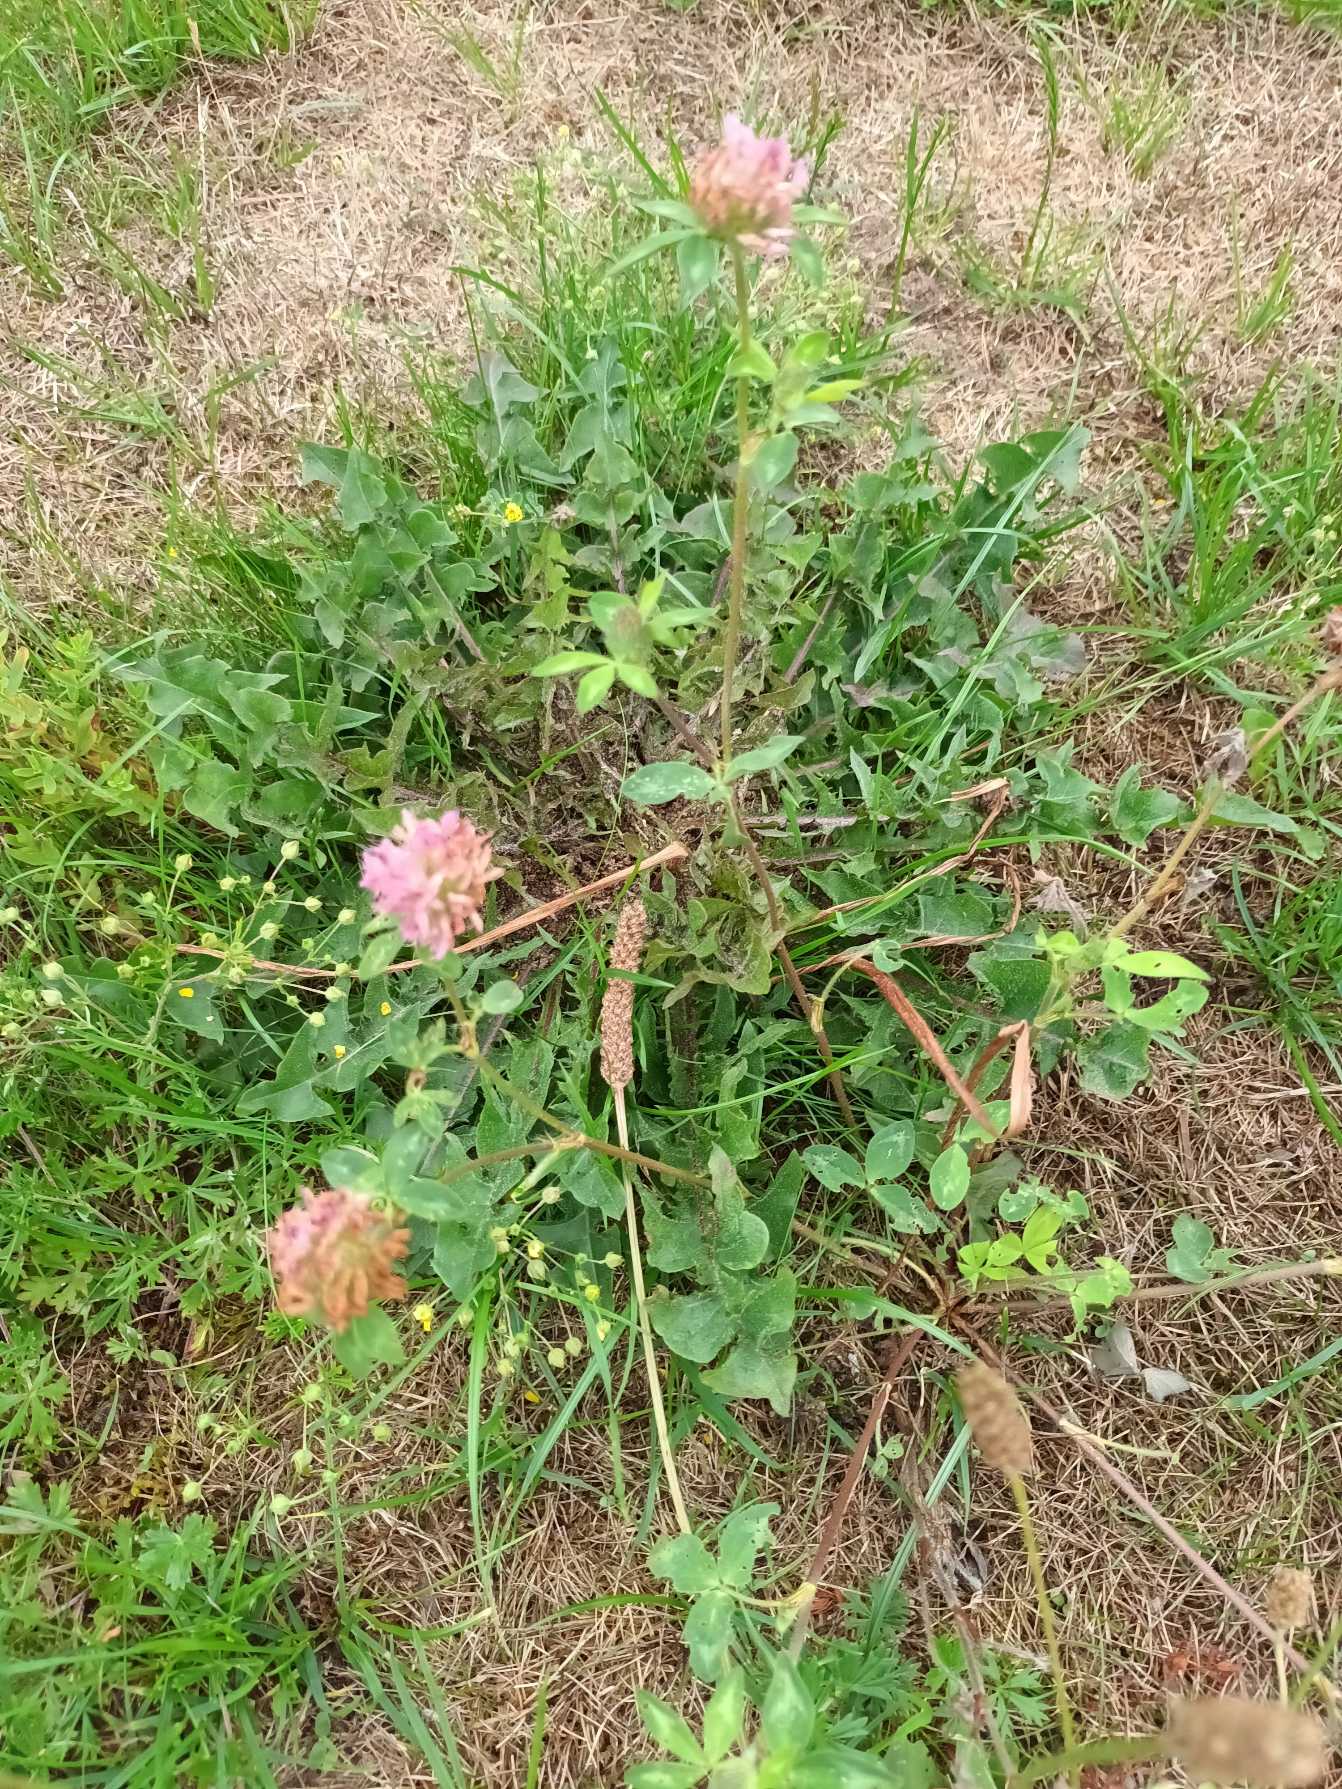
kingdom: Plantae
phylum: Tracheophyta
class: Magnoliopsida
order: Fabales
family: Fabaceae
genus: Trifolium
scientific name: Trifolium pratense
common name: Rød-kløver
